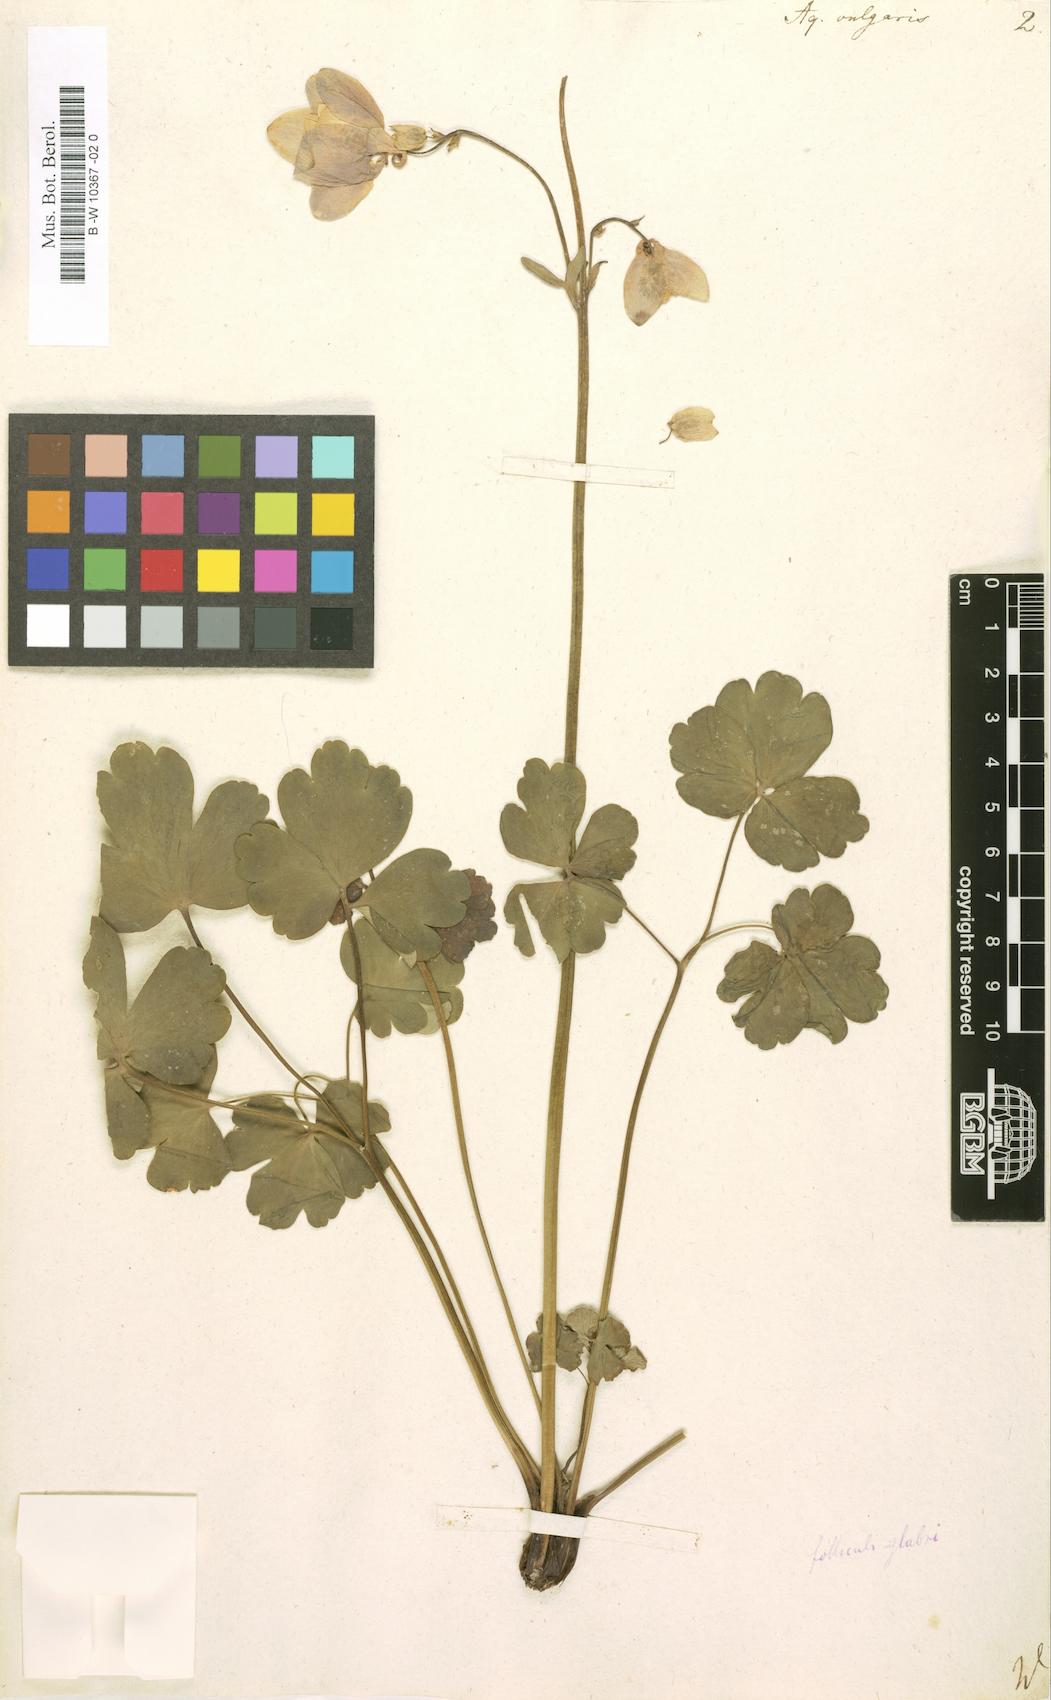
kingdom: Plantae
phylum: Tracheophyta
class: Magnoliopsida
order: Ranunculales
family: Ranunculaceae
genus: Aquilegia
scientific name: Aquilegia vulgaris
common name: Columbine
